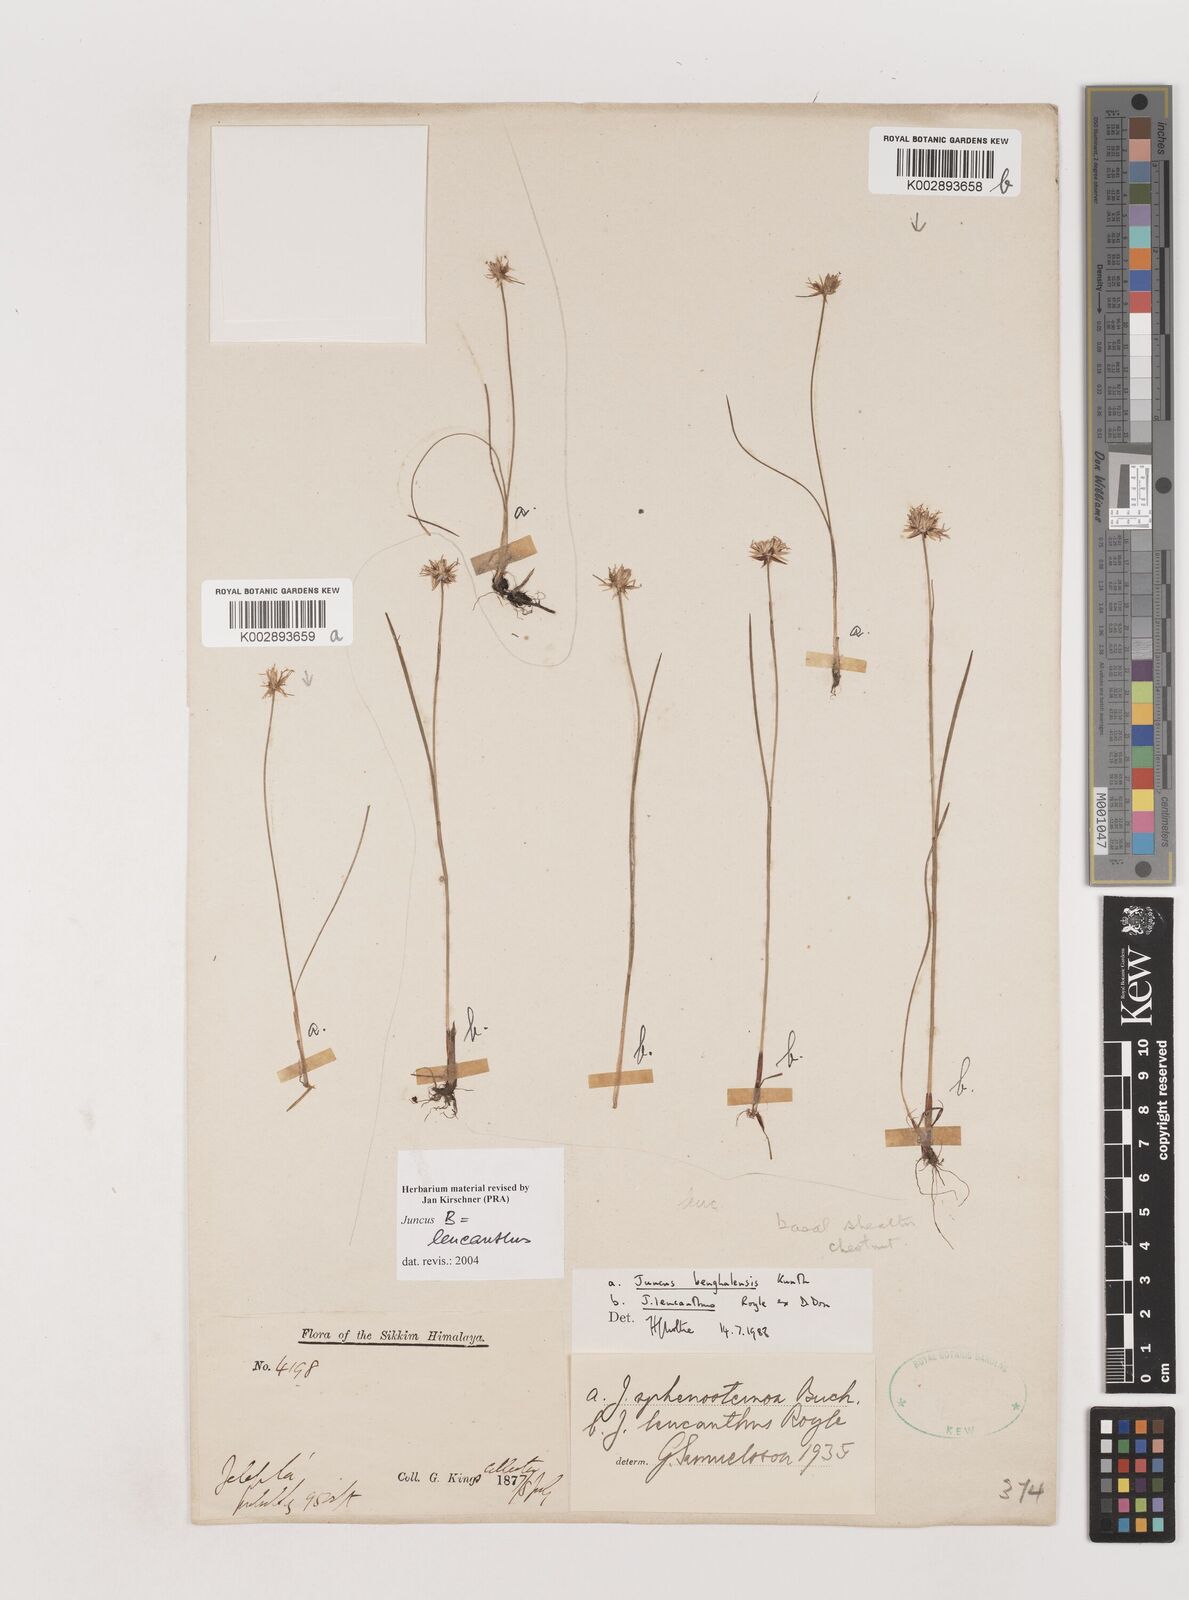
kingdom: Plantae
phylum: Tracheophyta
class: Liliopsida
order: Poales
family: Juncaceae
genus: Juncus
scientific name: Juncus leucanthus
